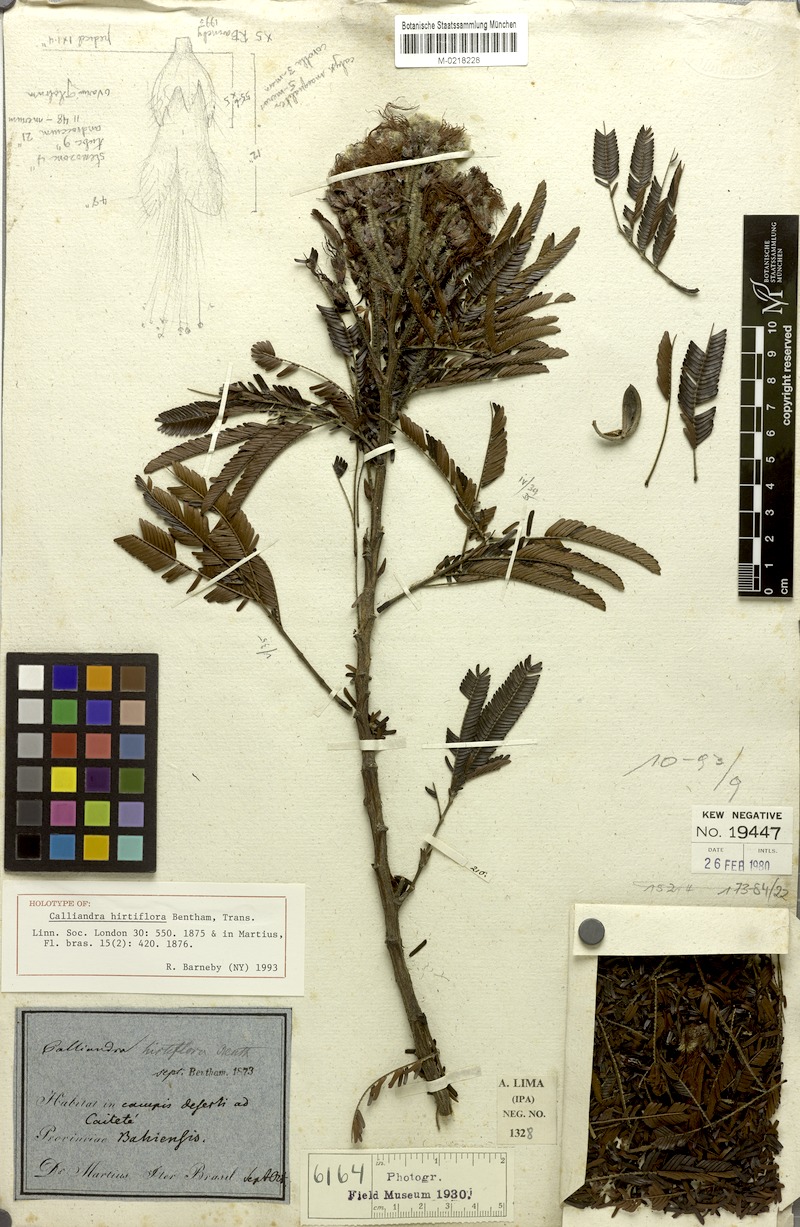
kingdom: Plantae
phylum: Tracheophyta
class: Magnoliopsida
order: Fabales
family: Fabaceae
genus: Calliandra
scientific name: Calliandra hirtiflora
